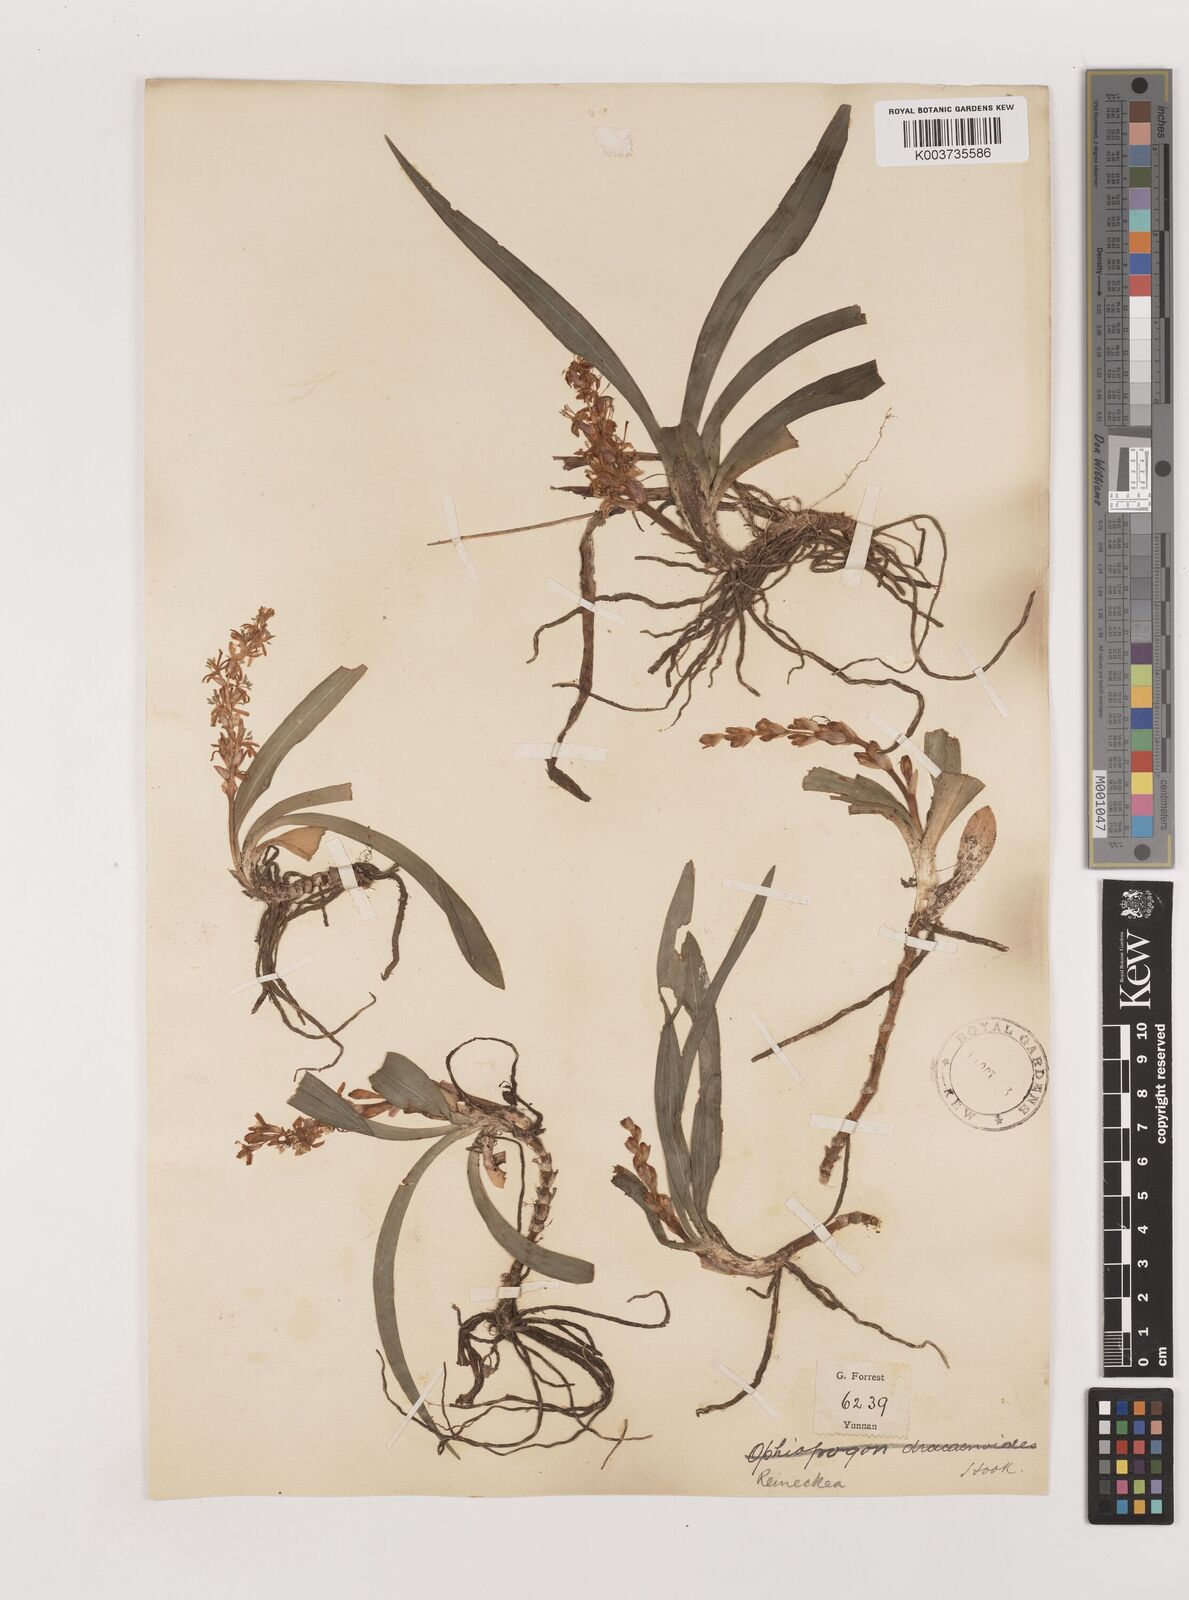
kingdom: Plantae
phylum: Tracheophyta
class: Liliopsida
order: Asparagales
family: Asparagaceae
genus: Reineckea
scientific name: Reineckea carnea
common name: Reineckea
